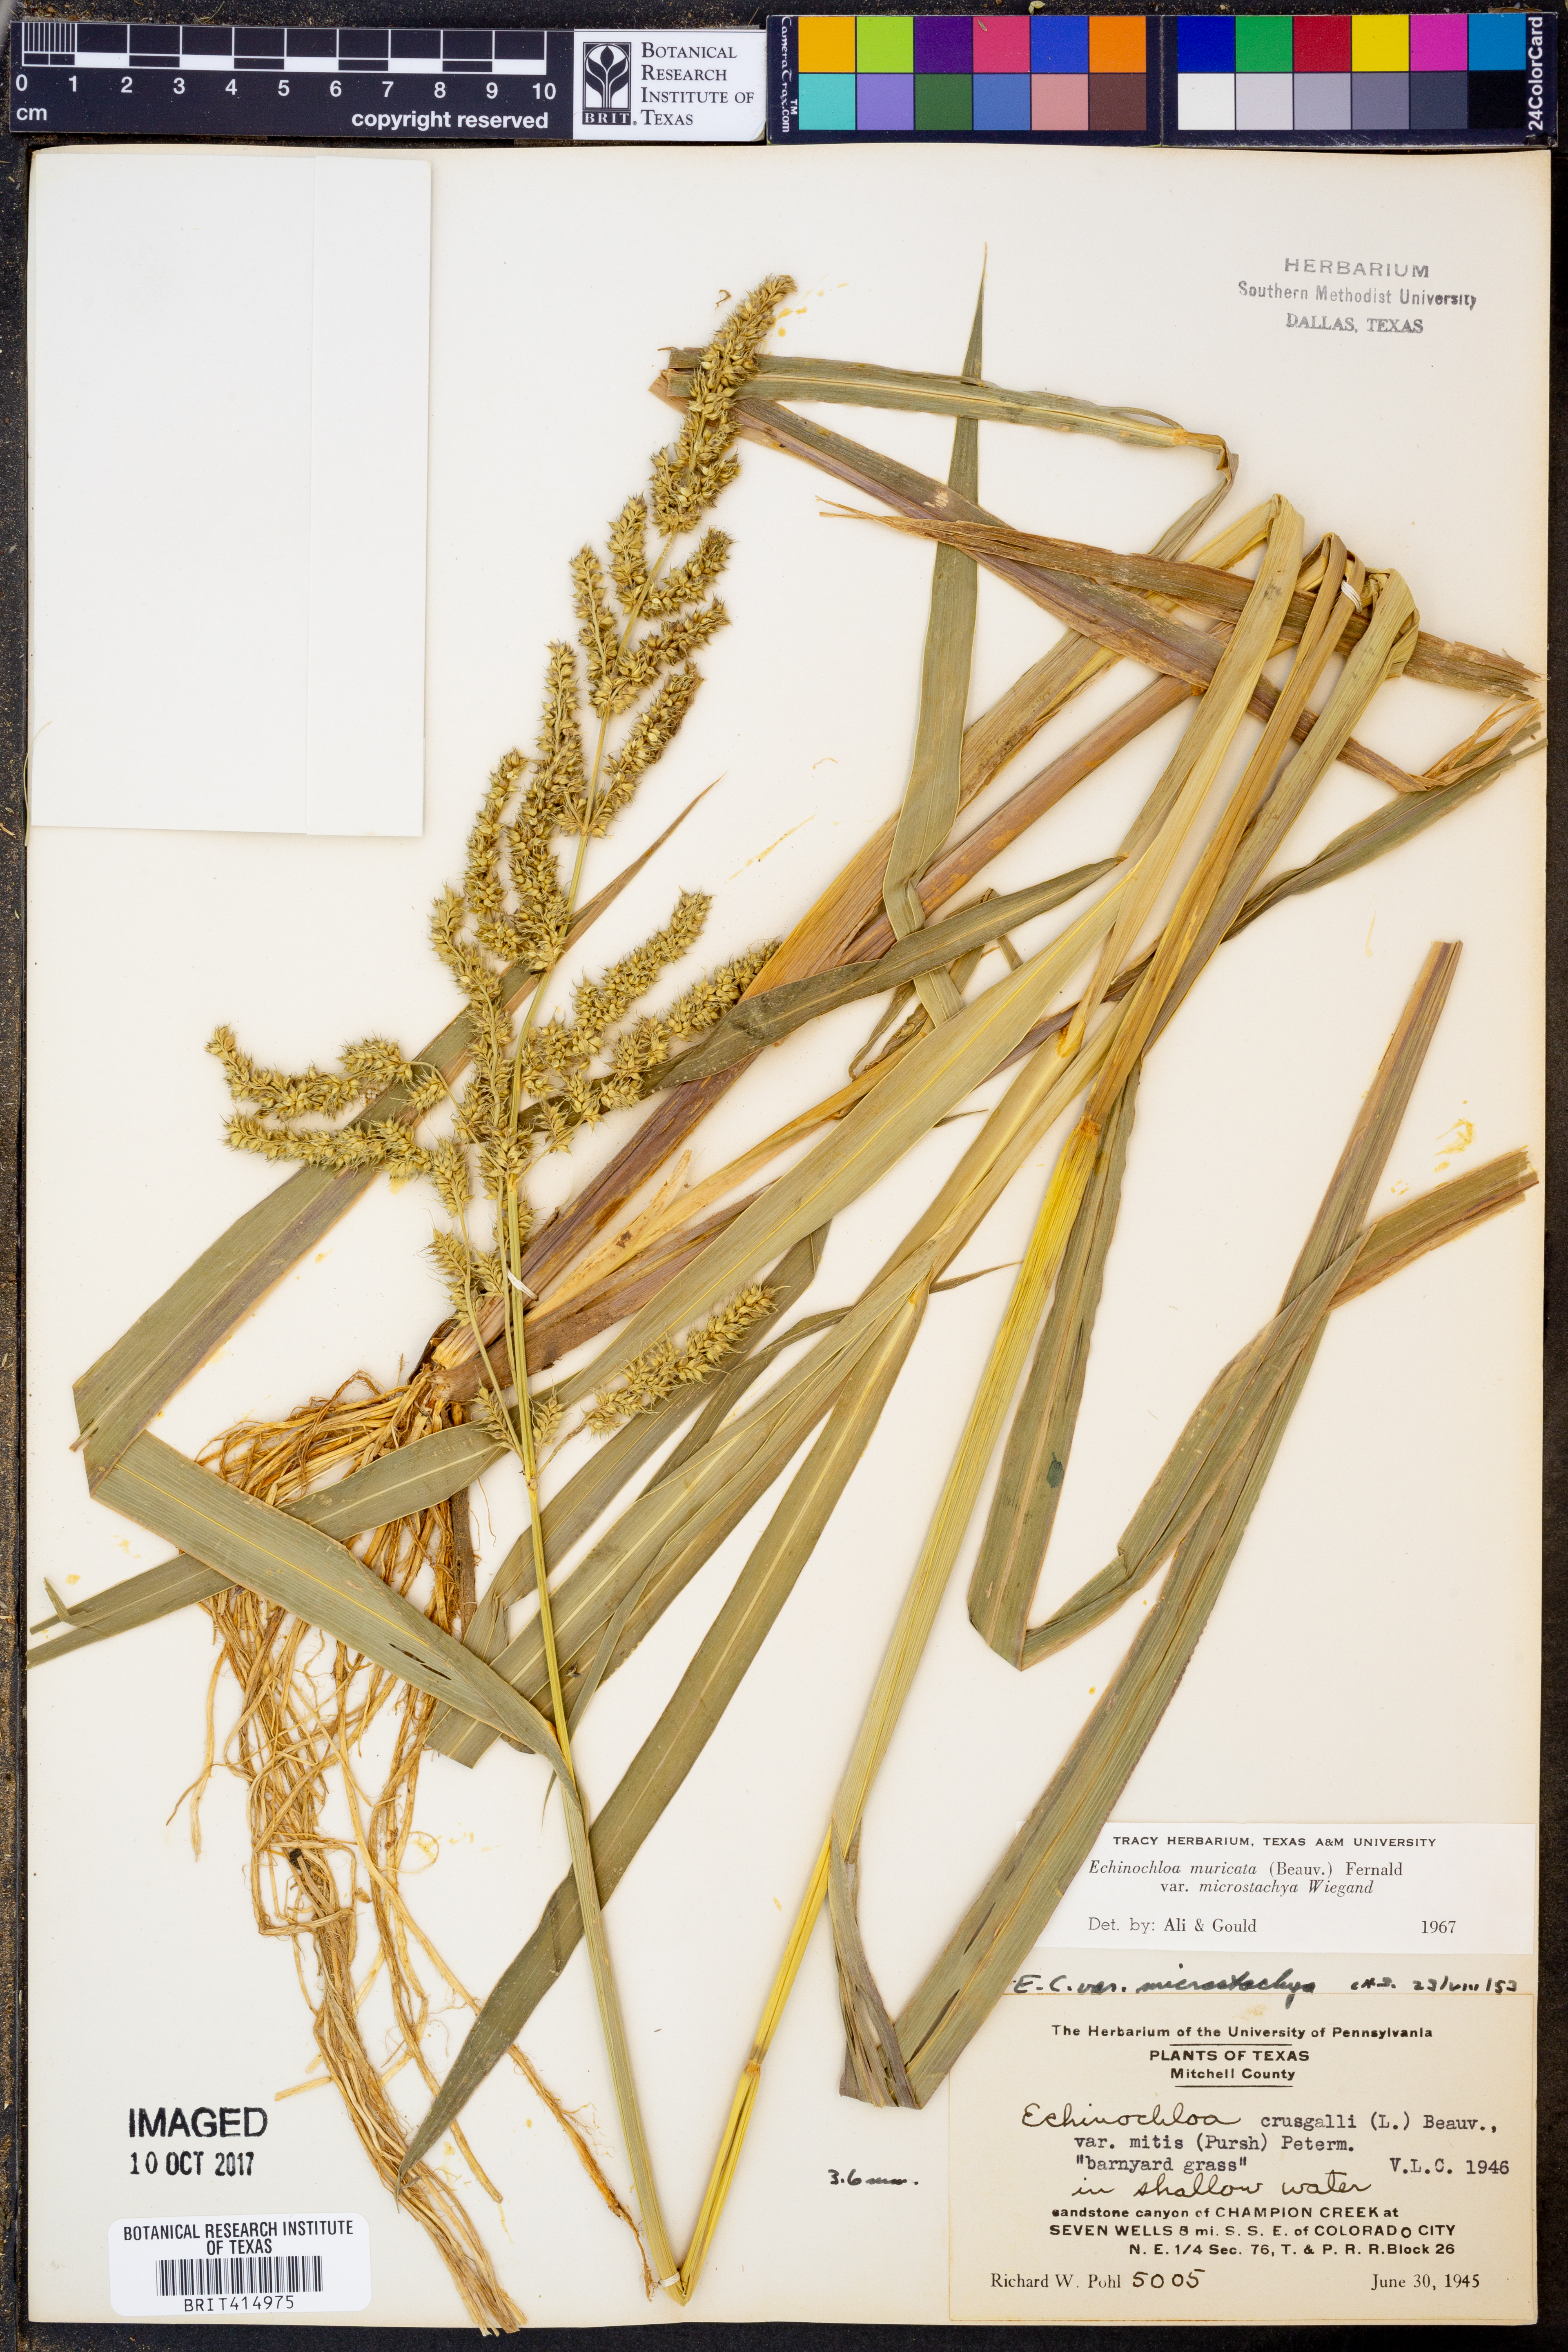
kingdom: Plantae
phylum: Tracheophyta
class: Liliopsida
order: Poales
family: Poaceae
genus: Echinochloa
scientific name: Echinochloa muricata
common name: American barnyard grass
